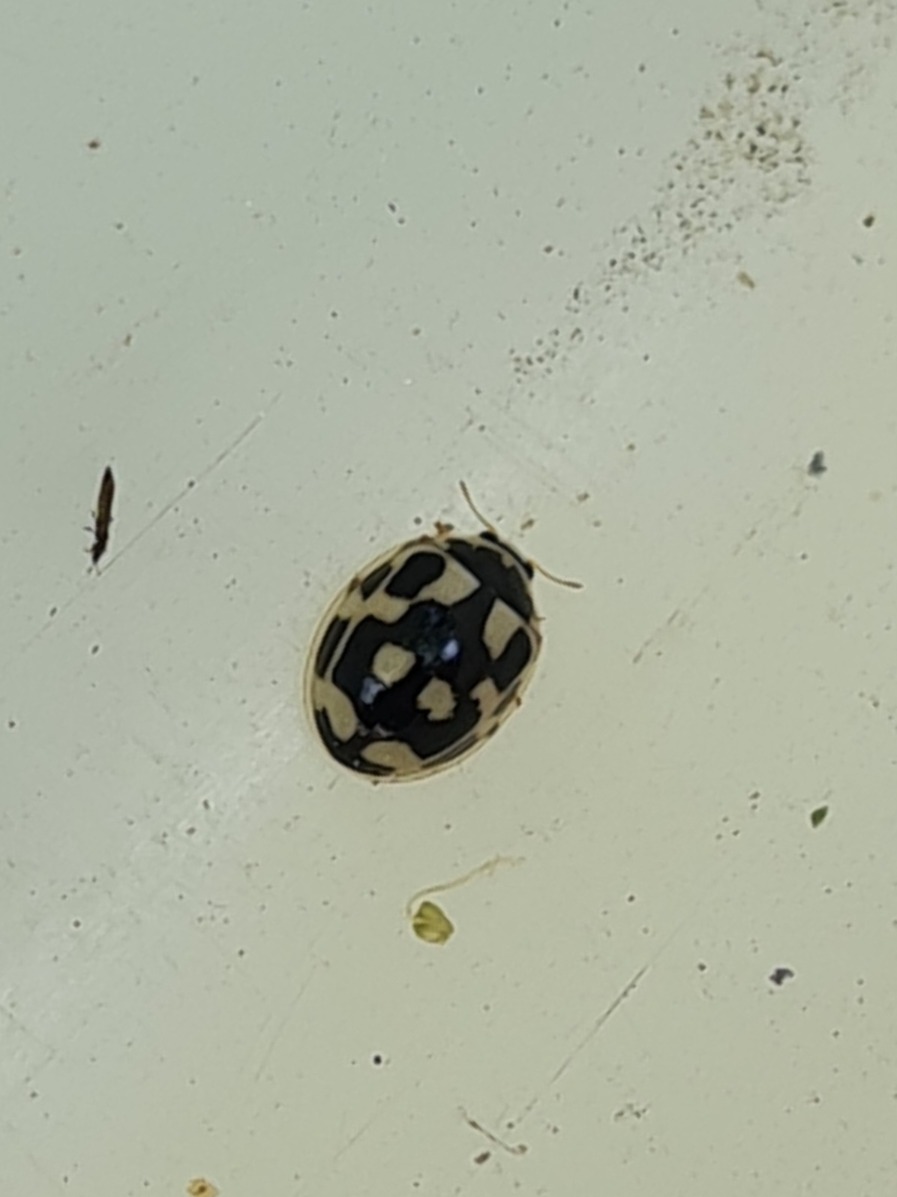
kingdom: Animalia
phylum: Arthropoda
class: Insecta
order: Coleoptera
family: Coccinellidae
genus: Propylaea
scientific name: Propylaea quatuordecimpunctata
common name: Skakbræt
